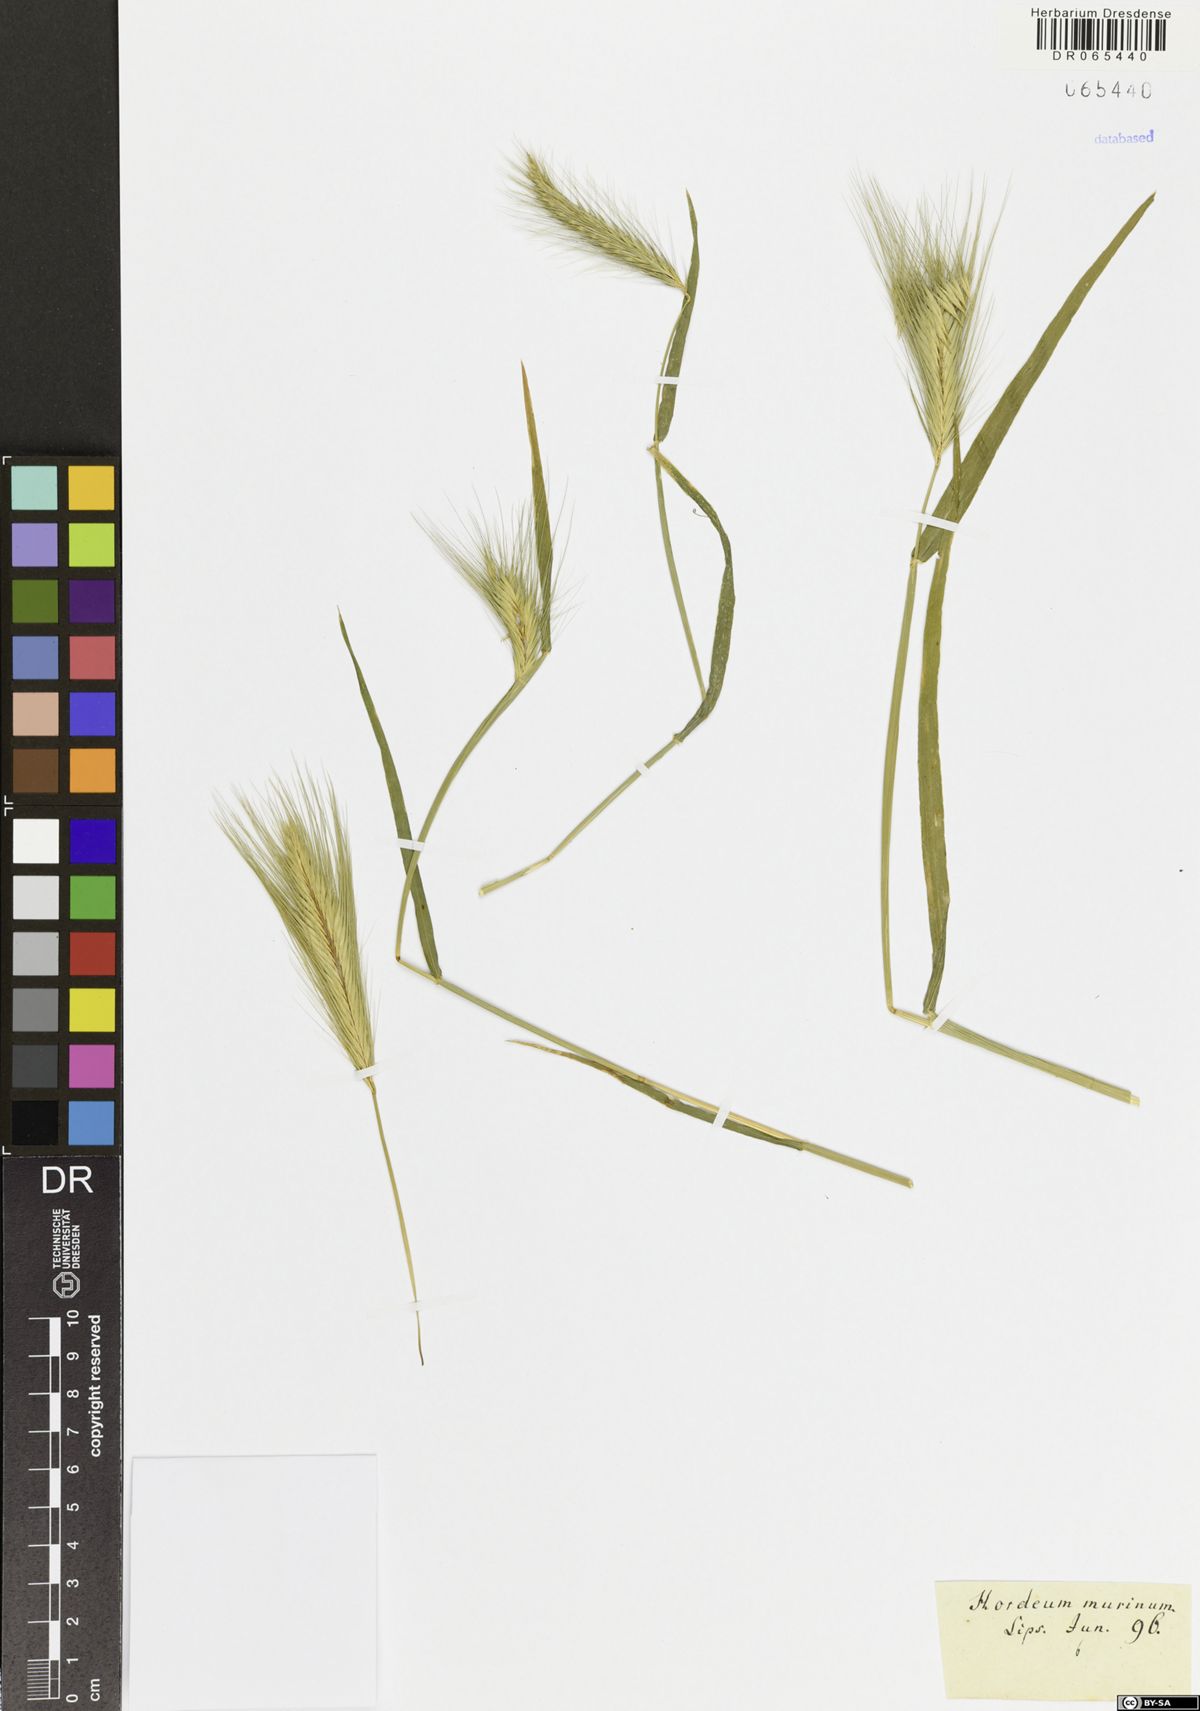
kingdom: Plantae
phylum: Tracheophyta
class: Liliopsida
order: Poales
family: Poaceae
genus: Hordeum
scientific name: Hordeum murinum
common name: Wall barley
